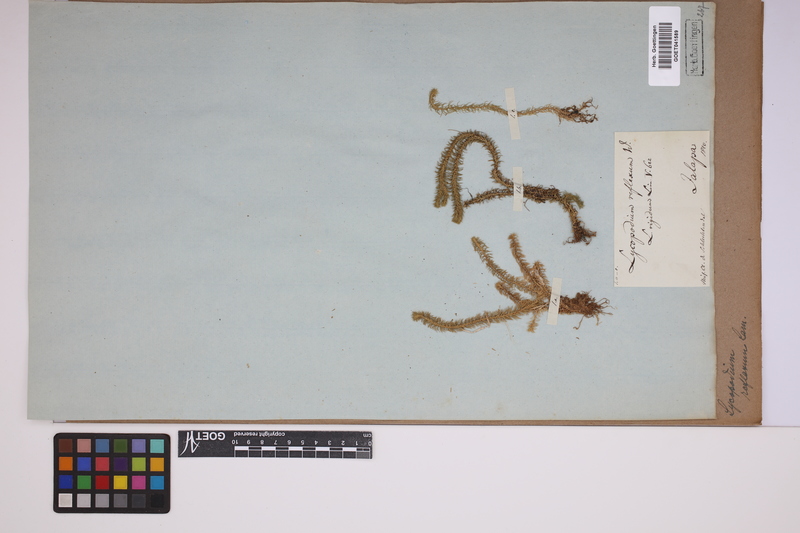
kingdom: Plantae
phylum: Tracheophyta
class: Lycopodiopsida
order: Lycopodiales
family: Lycopodiaceae
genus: Huperzia
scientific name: Huperzia lucidula
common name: Shining clubmoss
